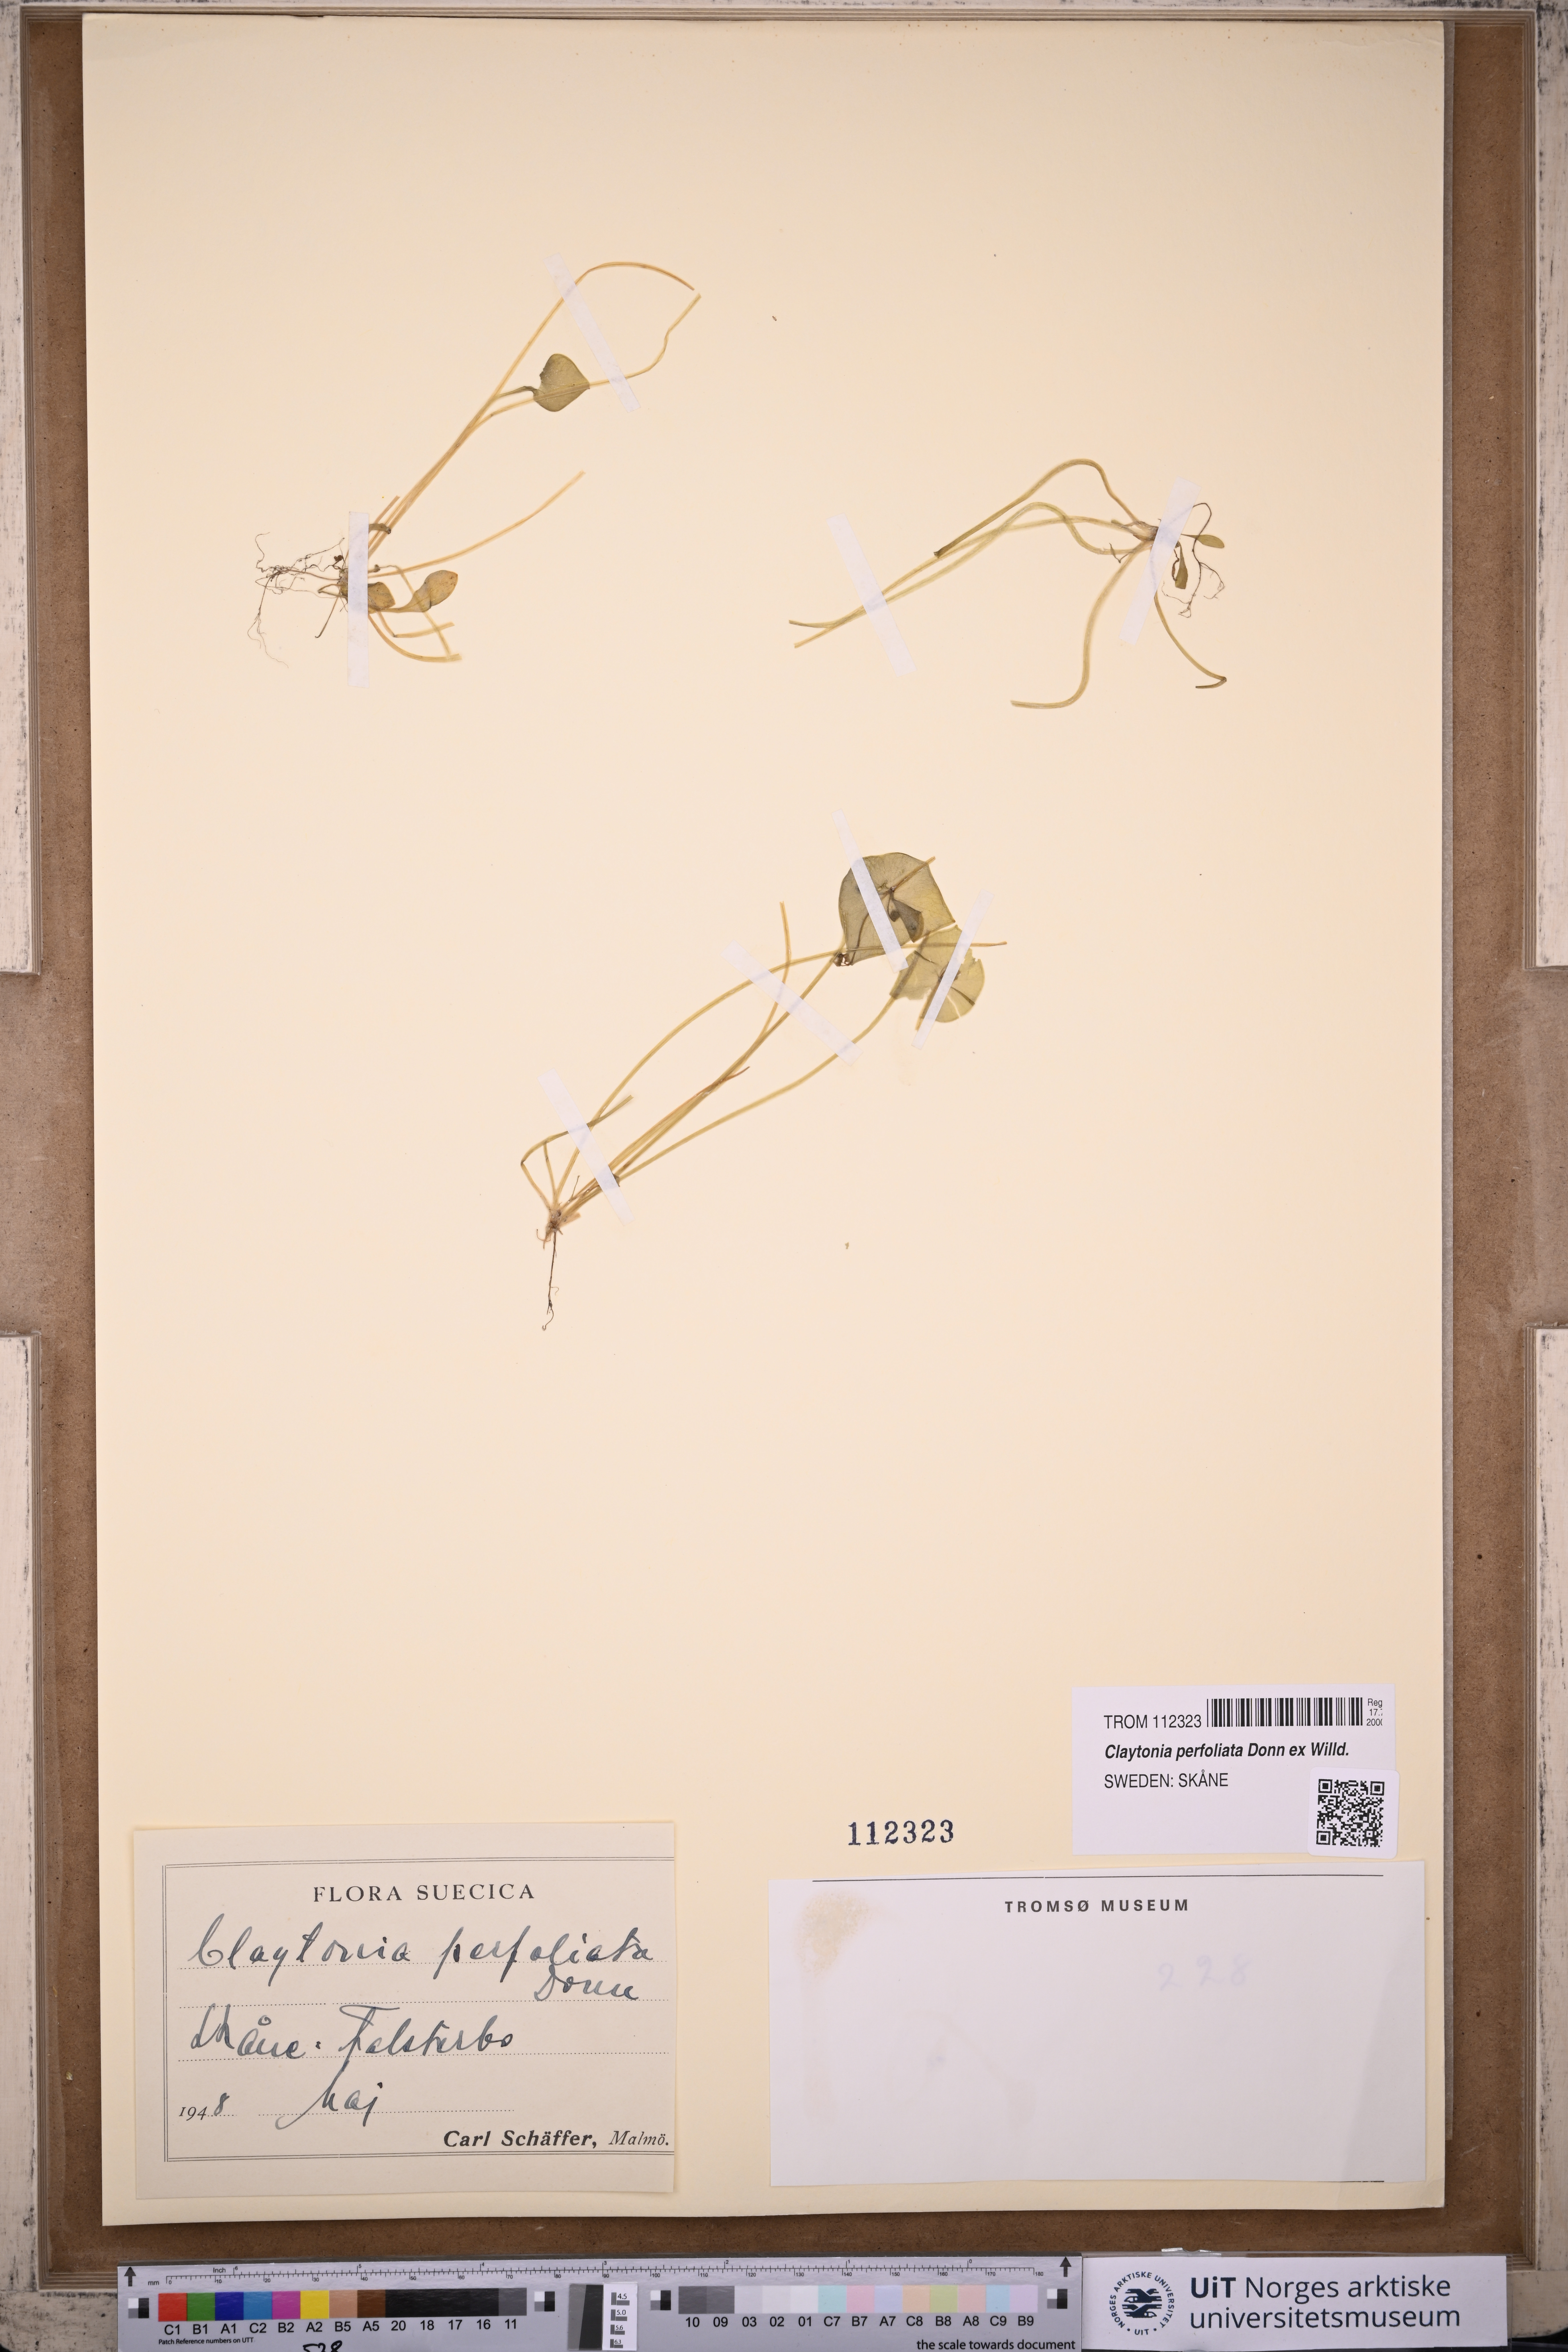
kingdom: Plantae
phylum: Tracheophyta
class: Magnoliopsida
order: Caryophyllales
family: Montiaceae
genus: Claytonia
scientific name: Claytonia perfoliata
